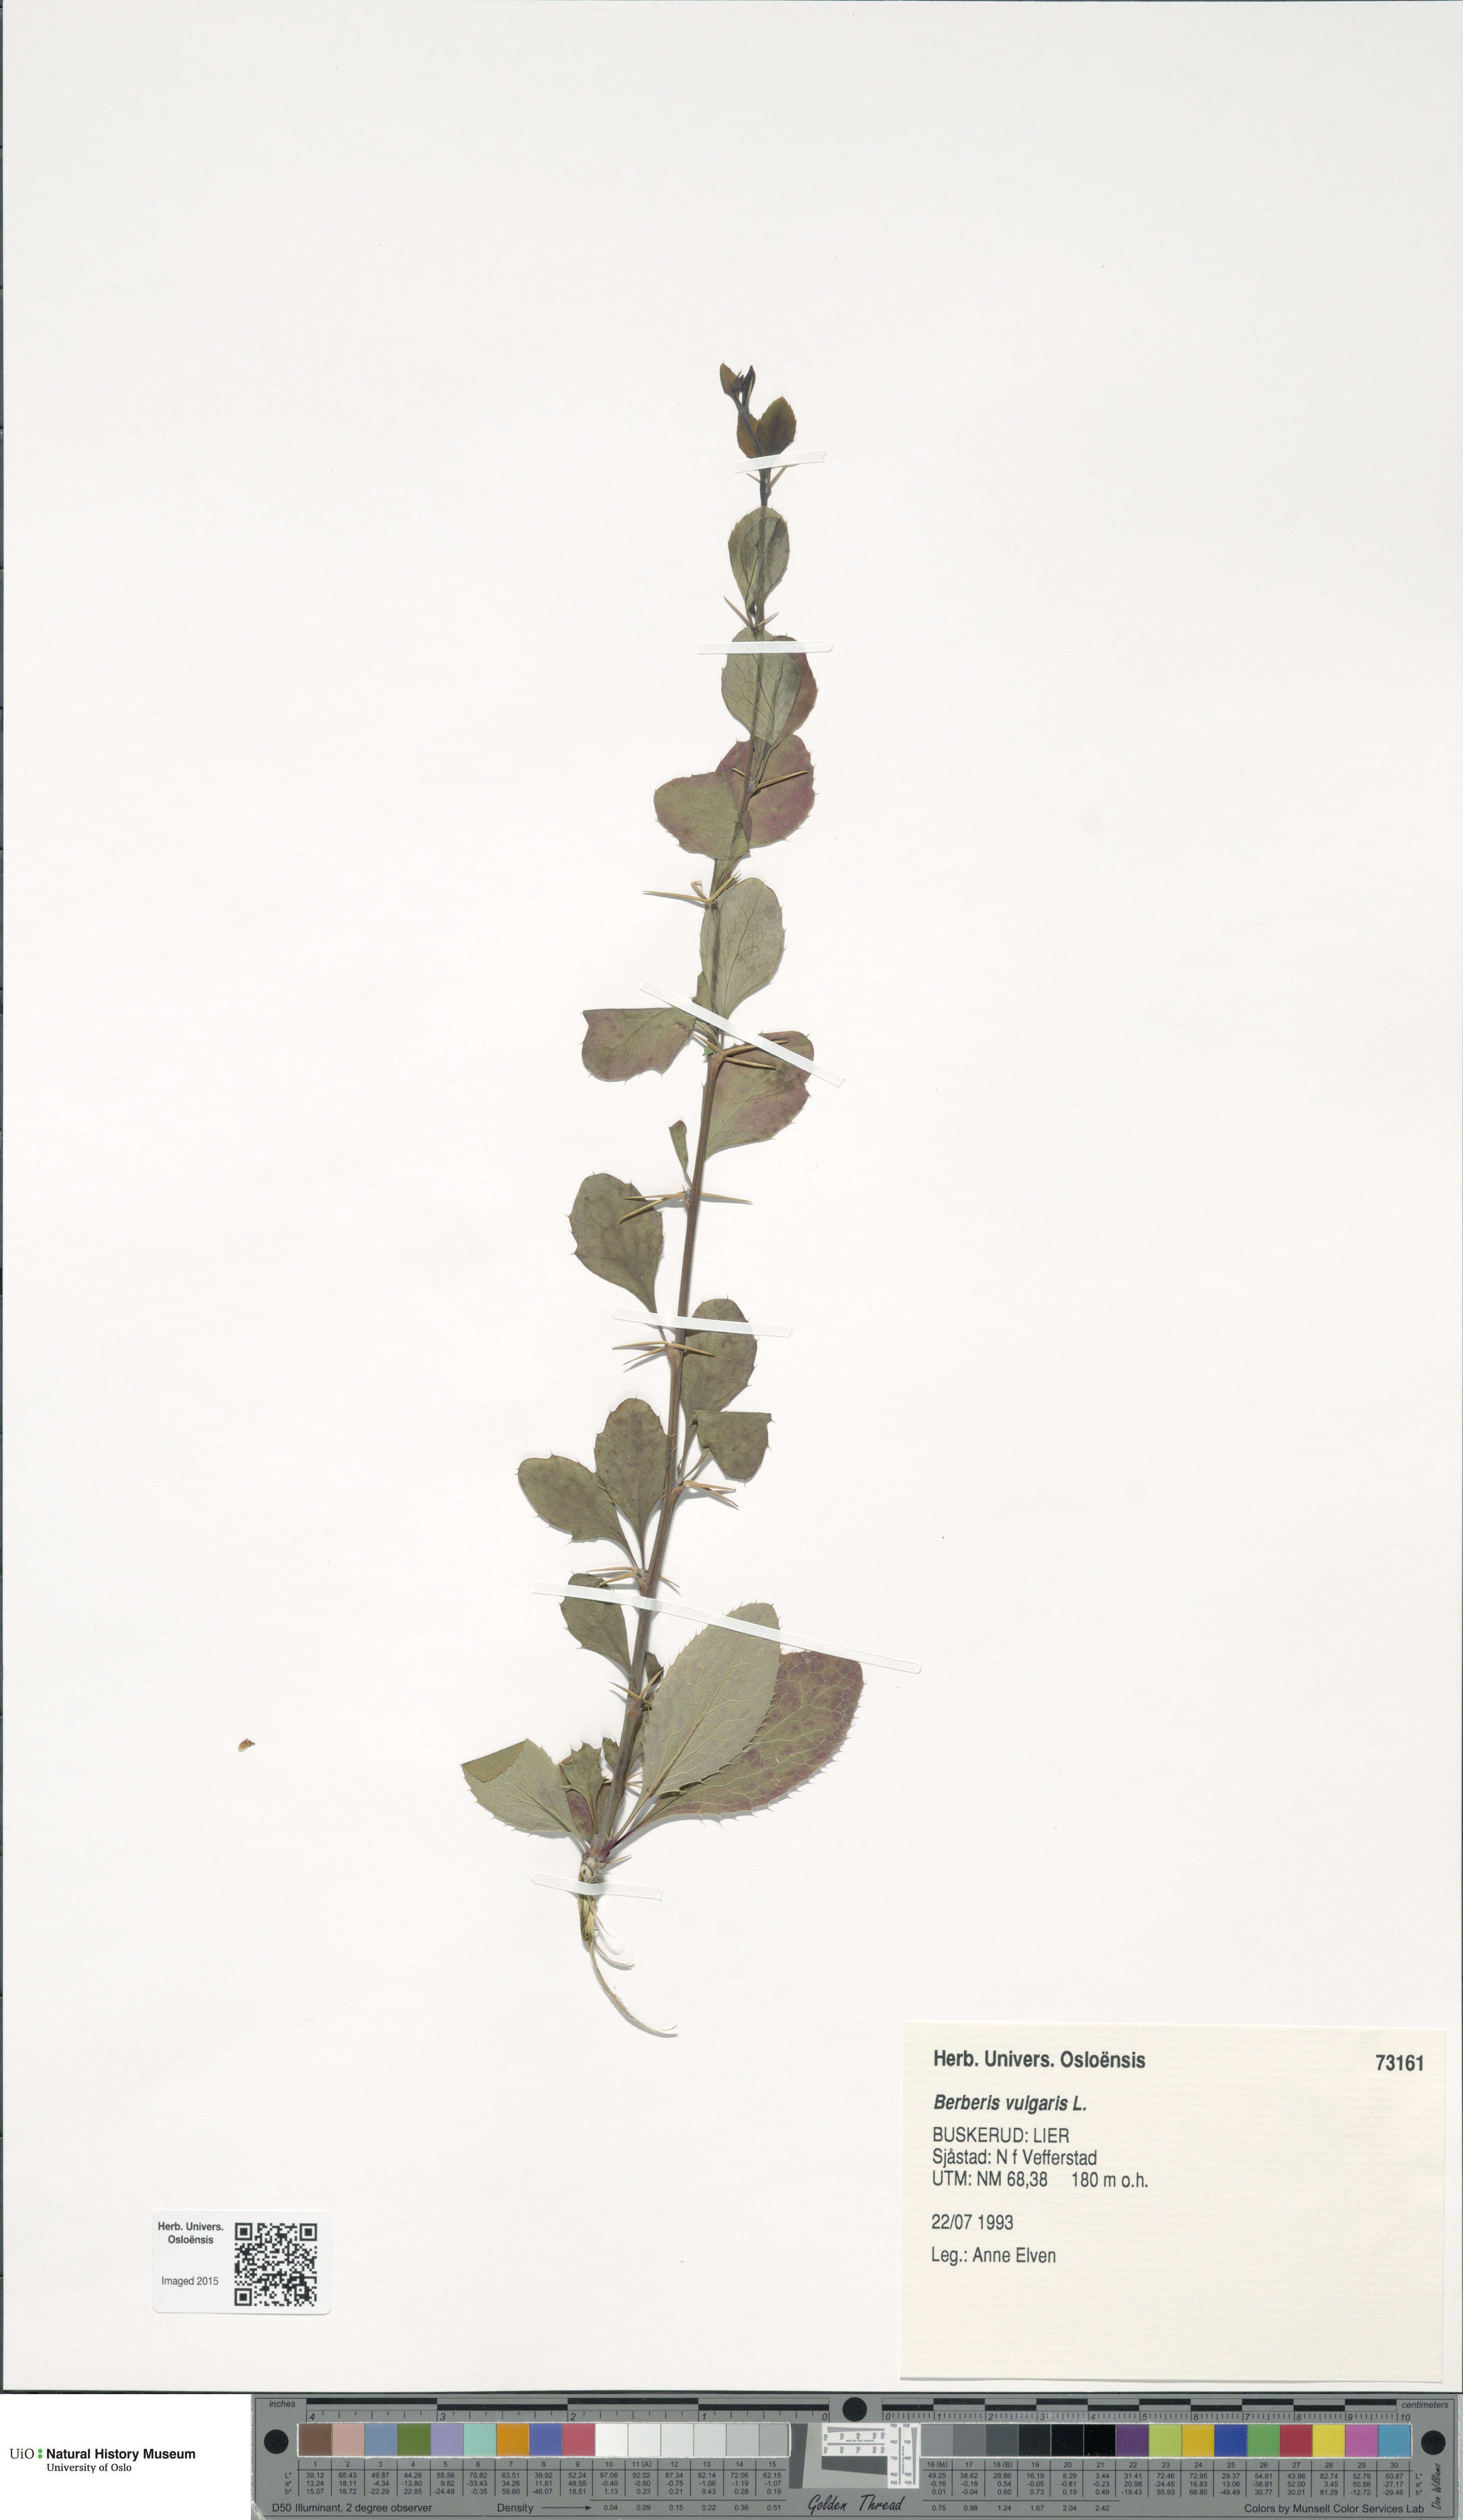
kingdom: Plantae
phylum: Tracheophyta
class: Magnoliopsida
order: Ranunculales
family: Berberidaceae
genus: Berberis
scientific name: Berberis vulgaris
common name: Barberry
